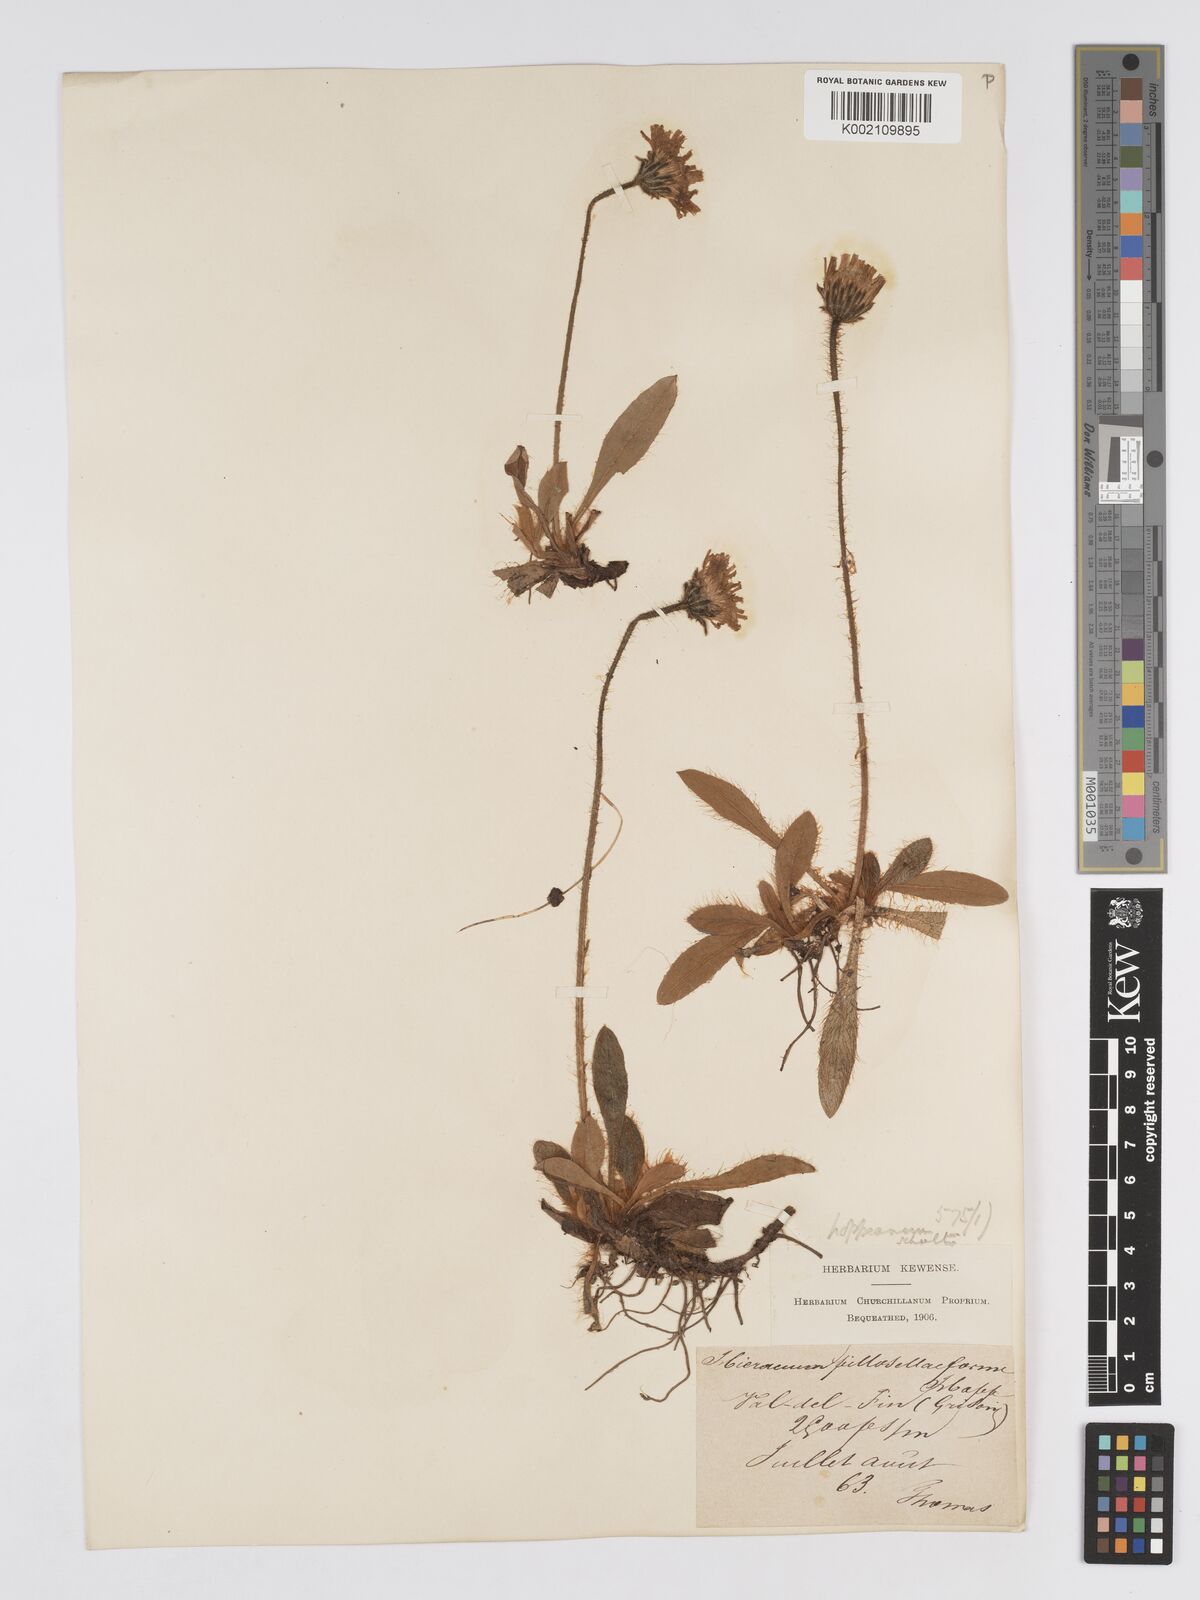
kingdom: Plantae
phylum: Tracheophyta
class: Magnoliopsida
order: Asterales
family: Asteraceae
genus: Pilosella
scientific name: Pilosella hoppeana
